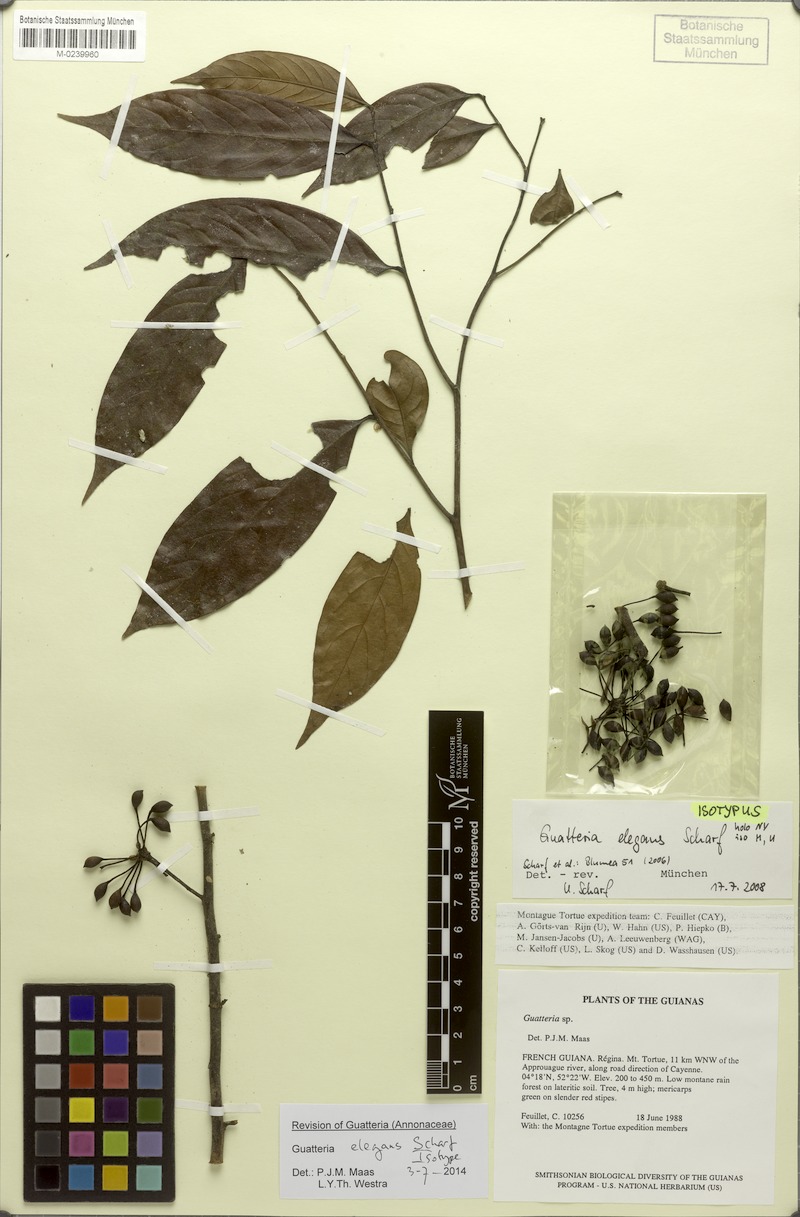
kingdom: Plantae
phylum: Tracheophyta
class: Magnoliopsida
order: Magnoliales
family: Annonaceae
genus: Guatteria
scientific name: Guatteria elegans
